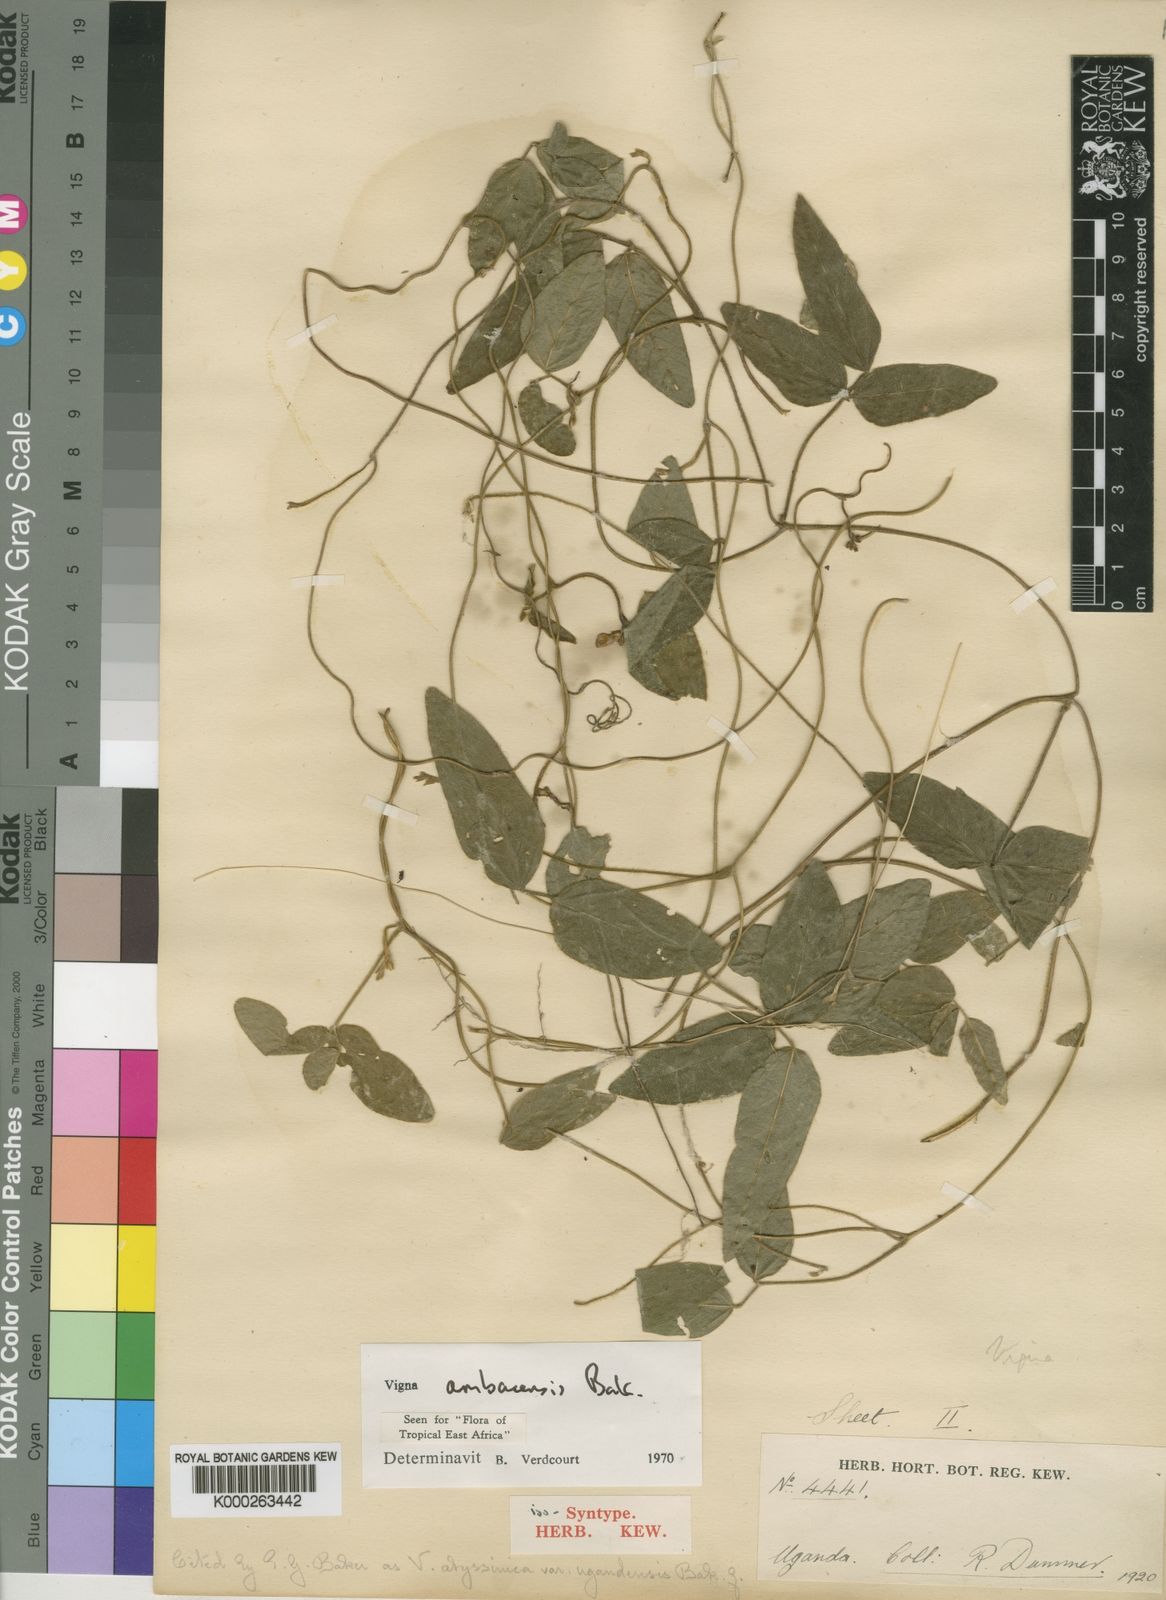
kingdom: Plantae
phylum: Tracheophyta
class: Magnoliopsida
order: Fabales
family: Fabaceae
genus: Vigna
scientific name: Vigna ambacensis
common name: Tsarkiyan zomo
